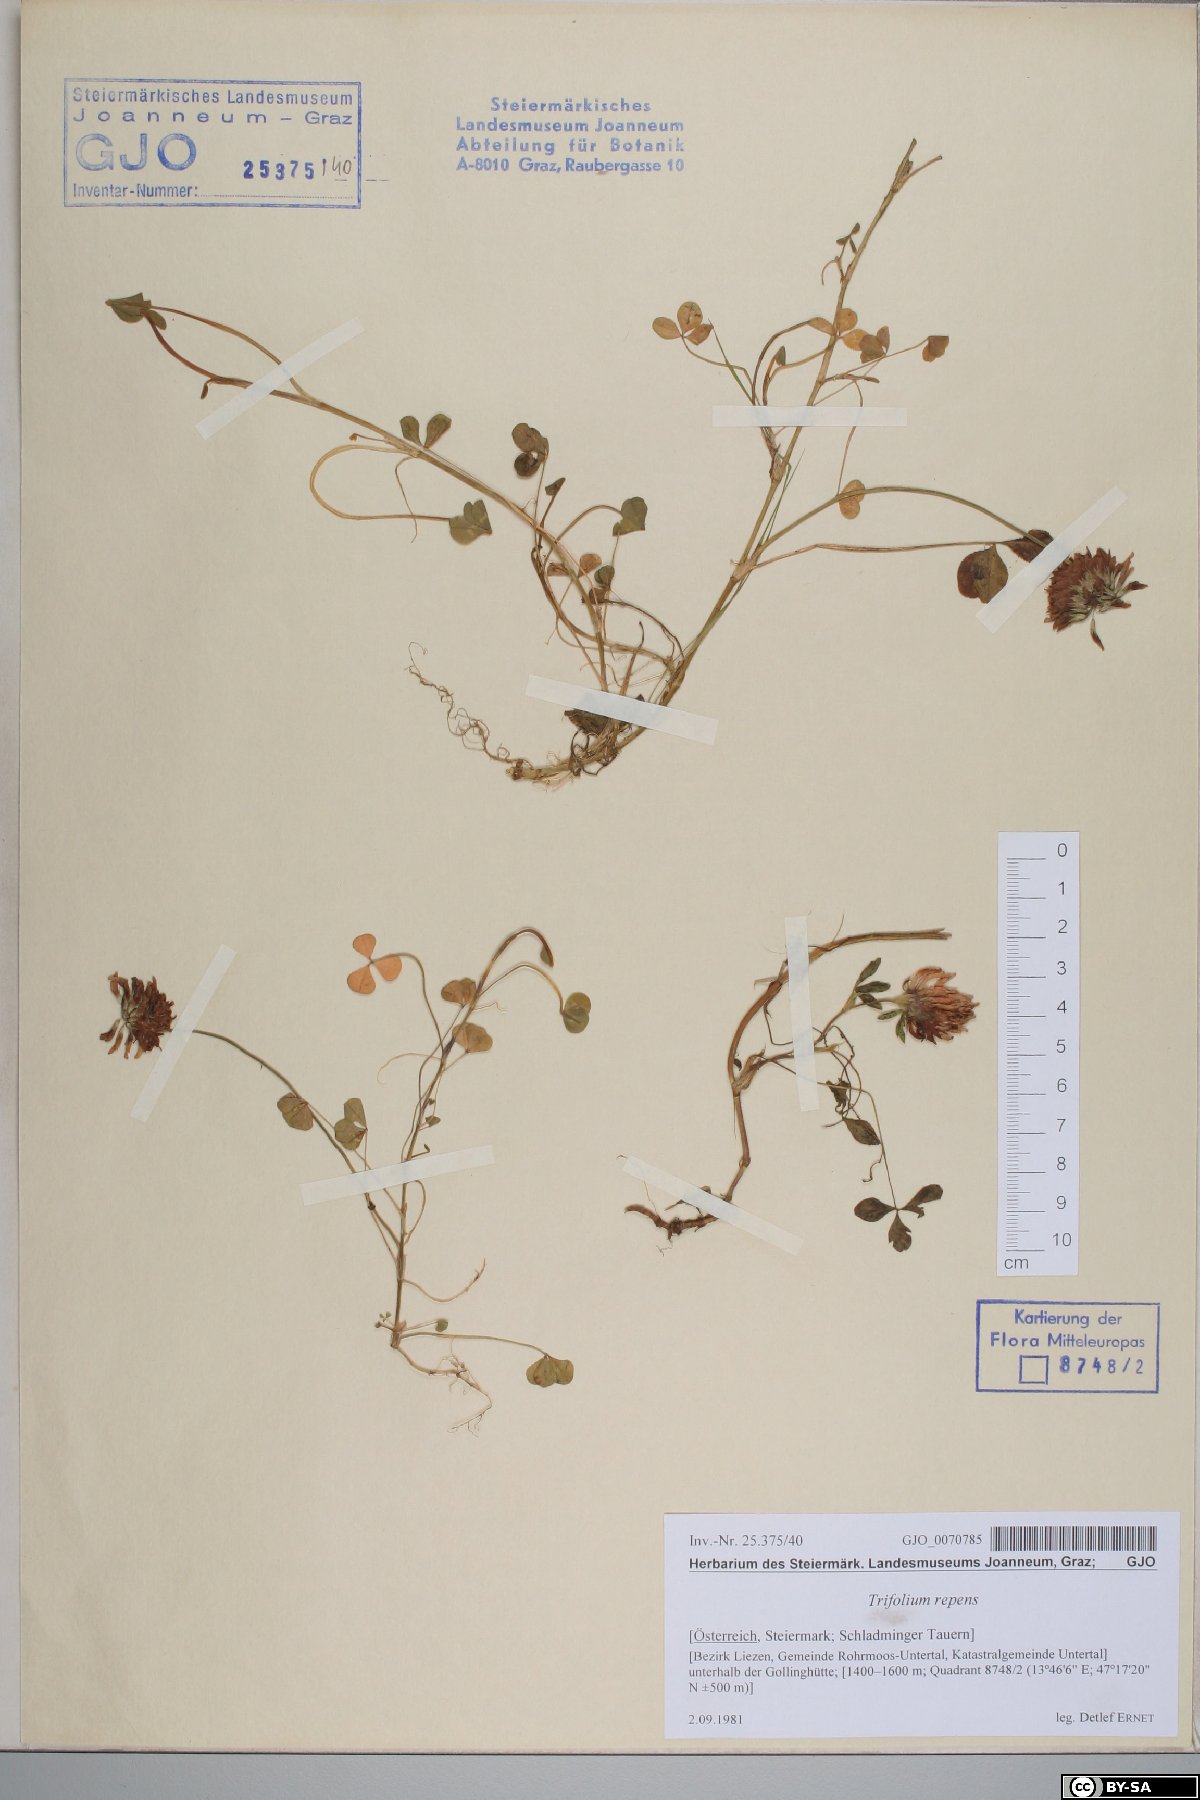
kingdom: Plantae
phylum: Tracheophyta
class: Magnoliopsida
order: Fabales
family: Fabaceae
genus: Trifolium
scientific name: Trifolium repens
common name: White clover
